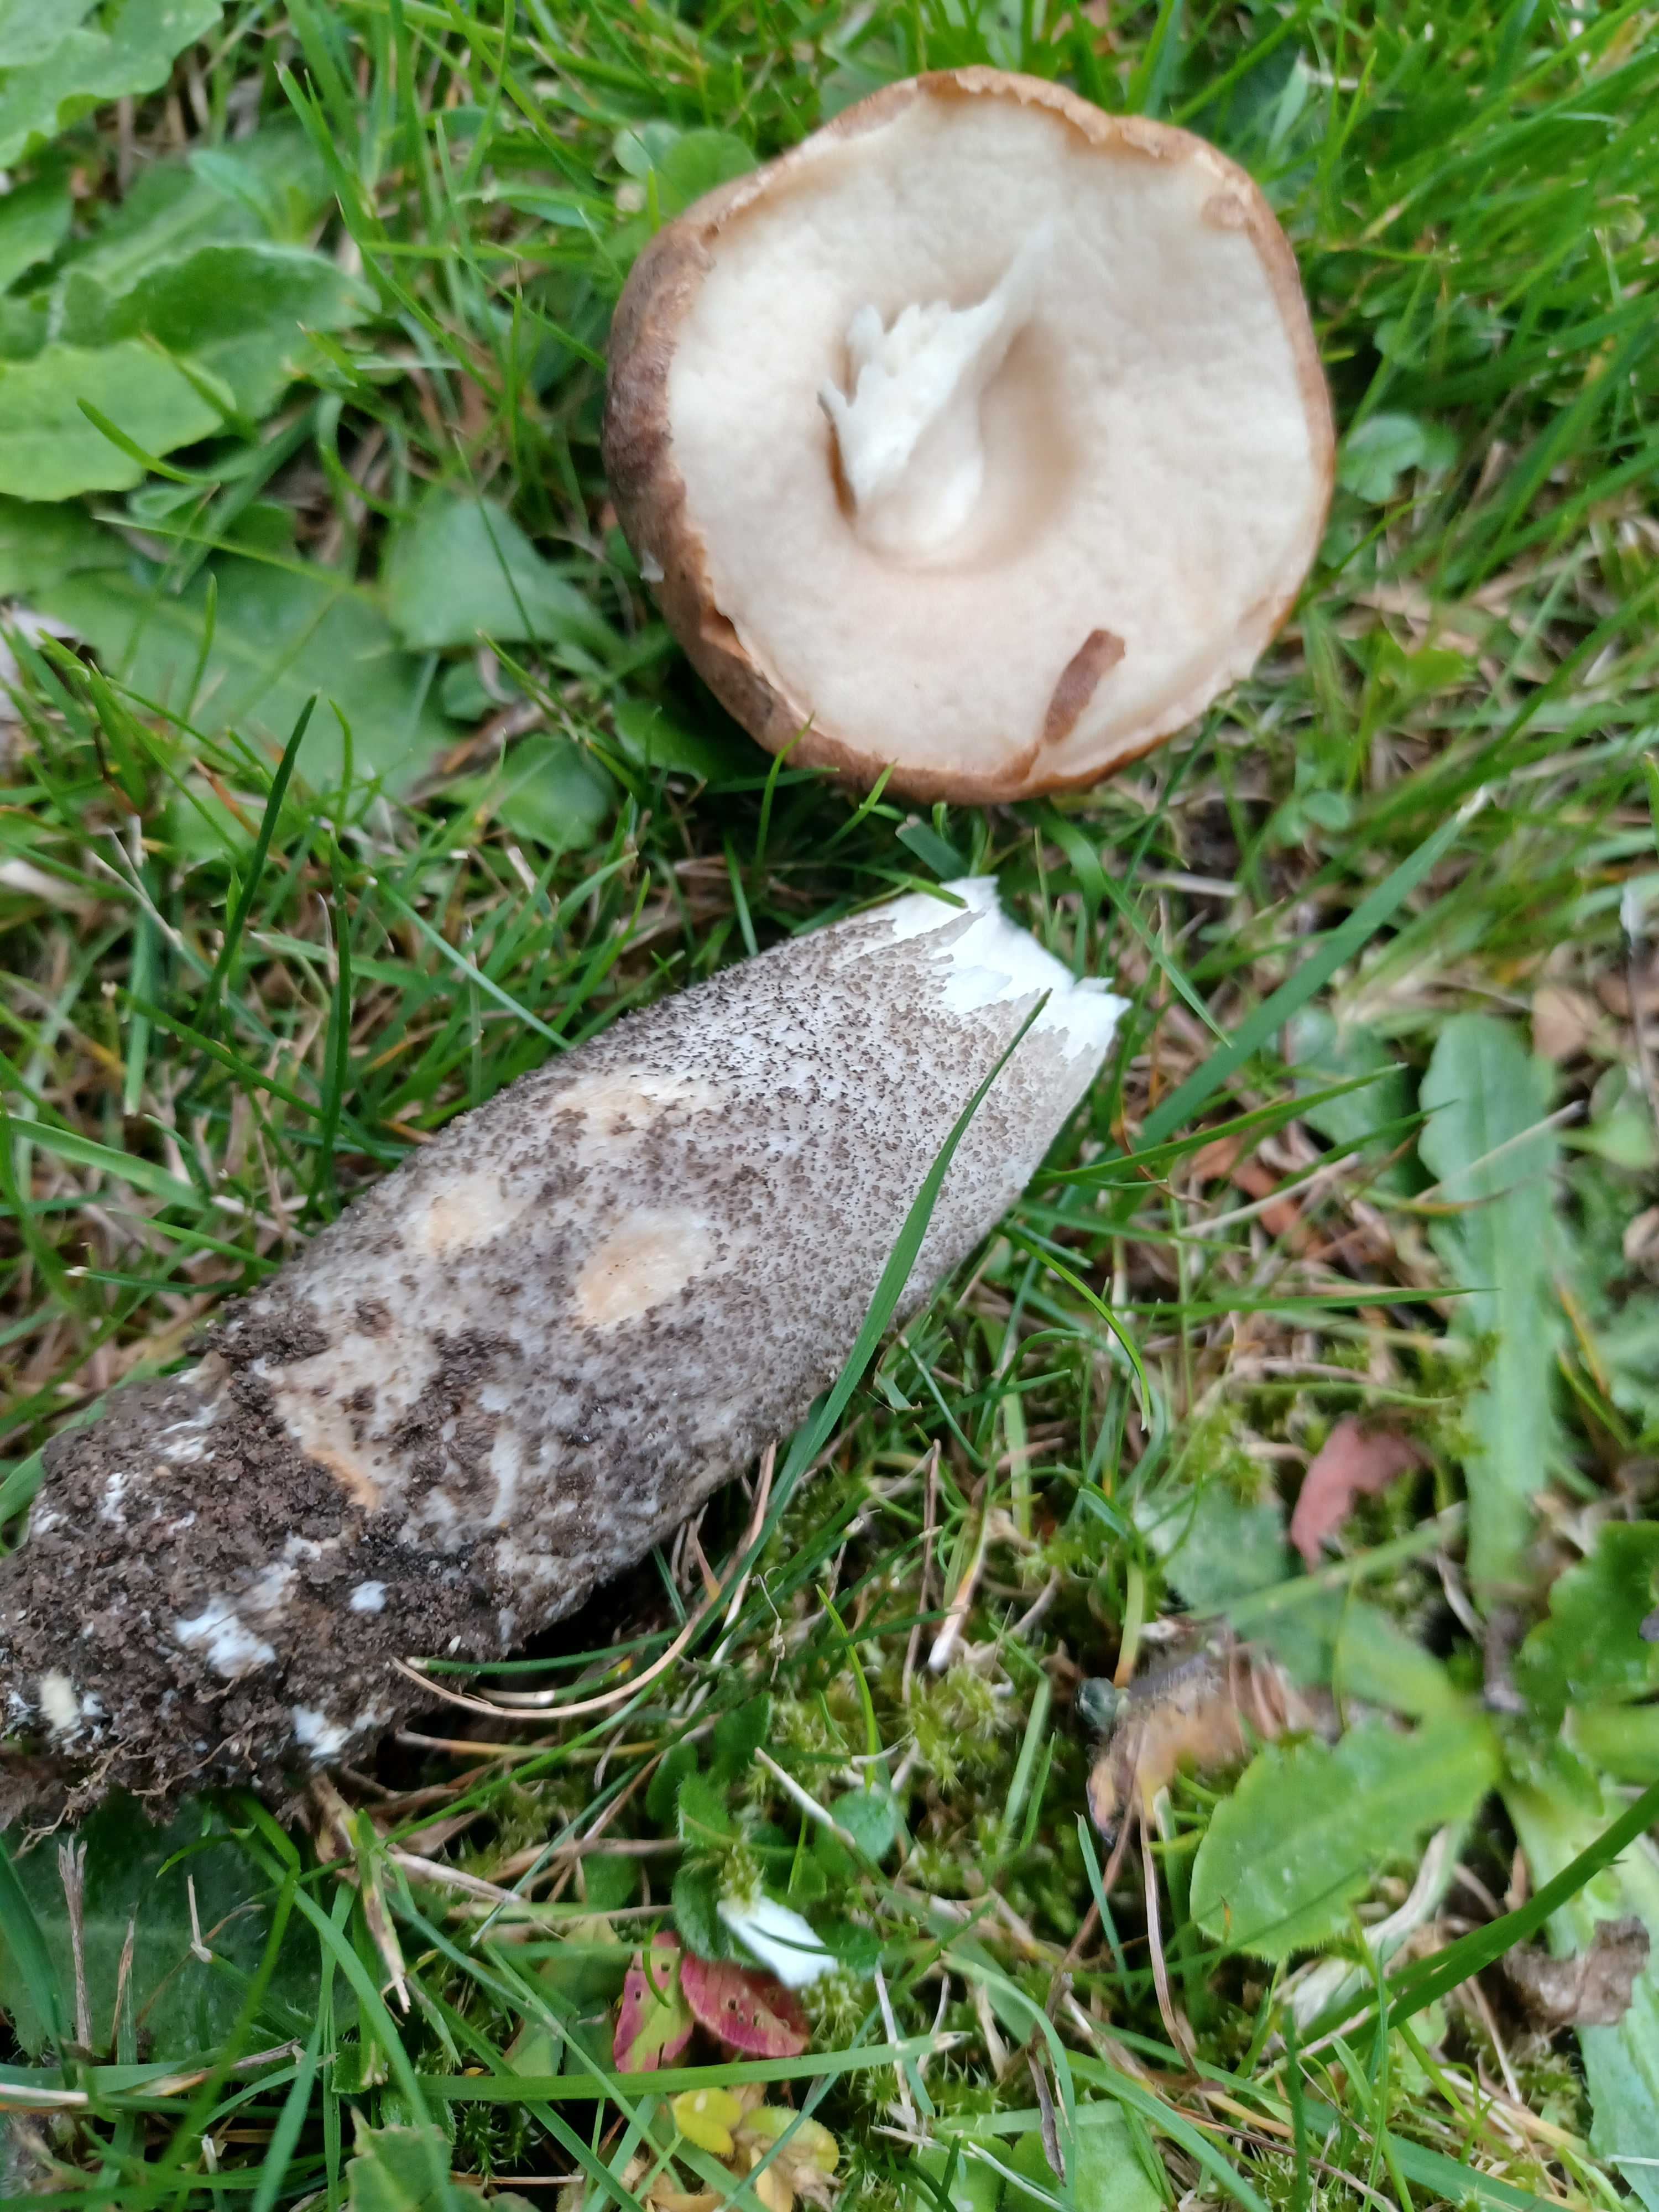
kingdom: Fungi
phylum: Basidiomycota
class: Agaricomycetes
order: Boletales
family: Boletaceae
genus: Leccinum
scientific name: Leccinum scabrum
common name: brun skælrørhat
